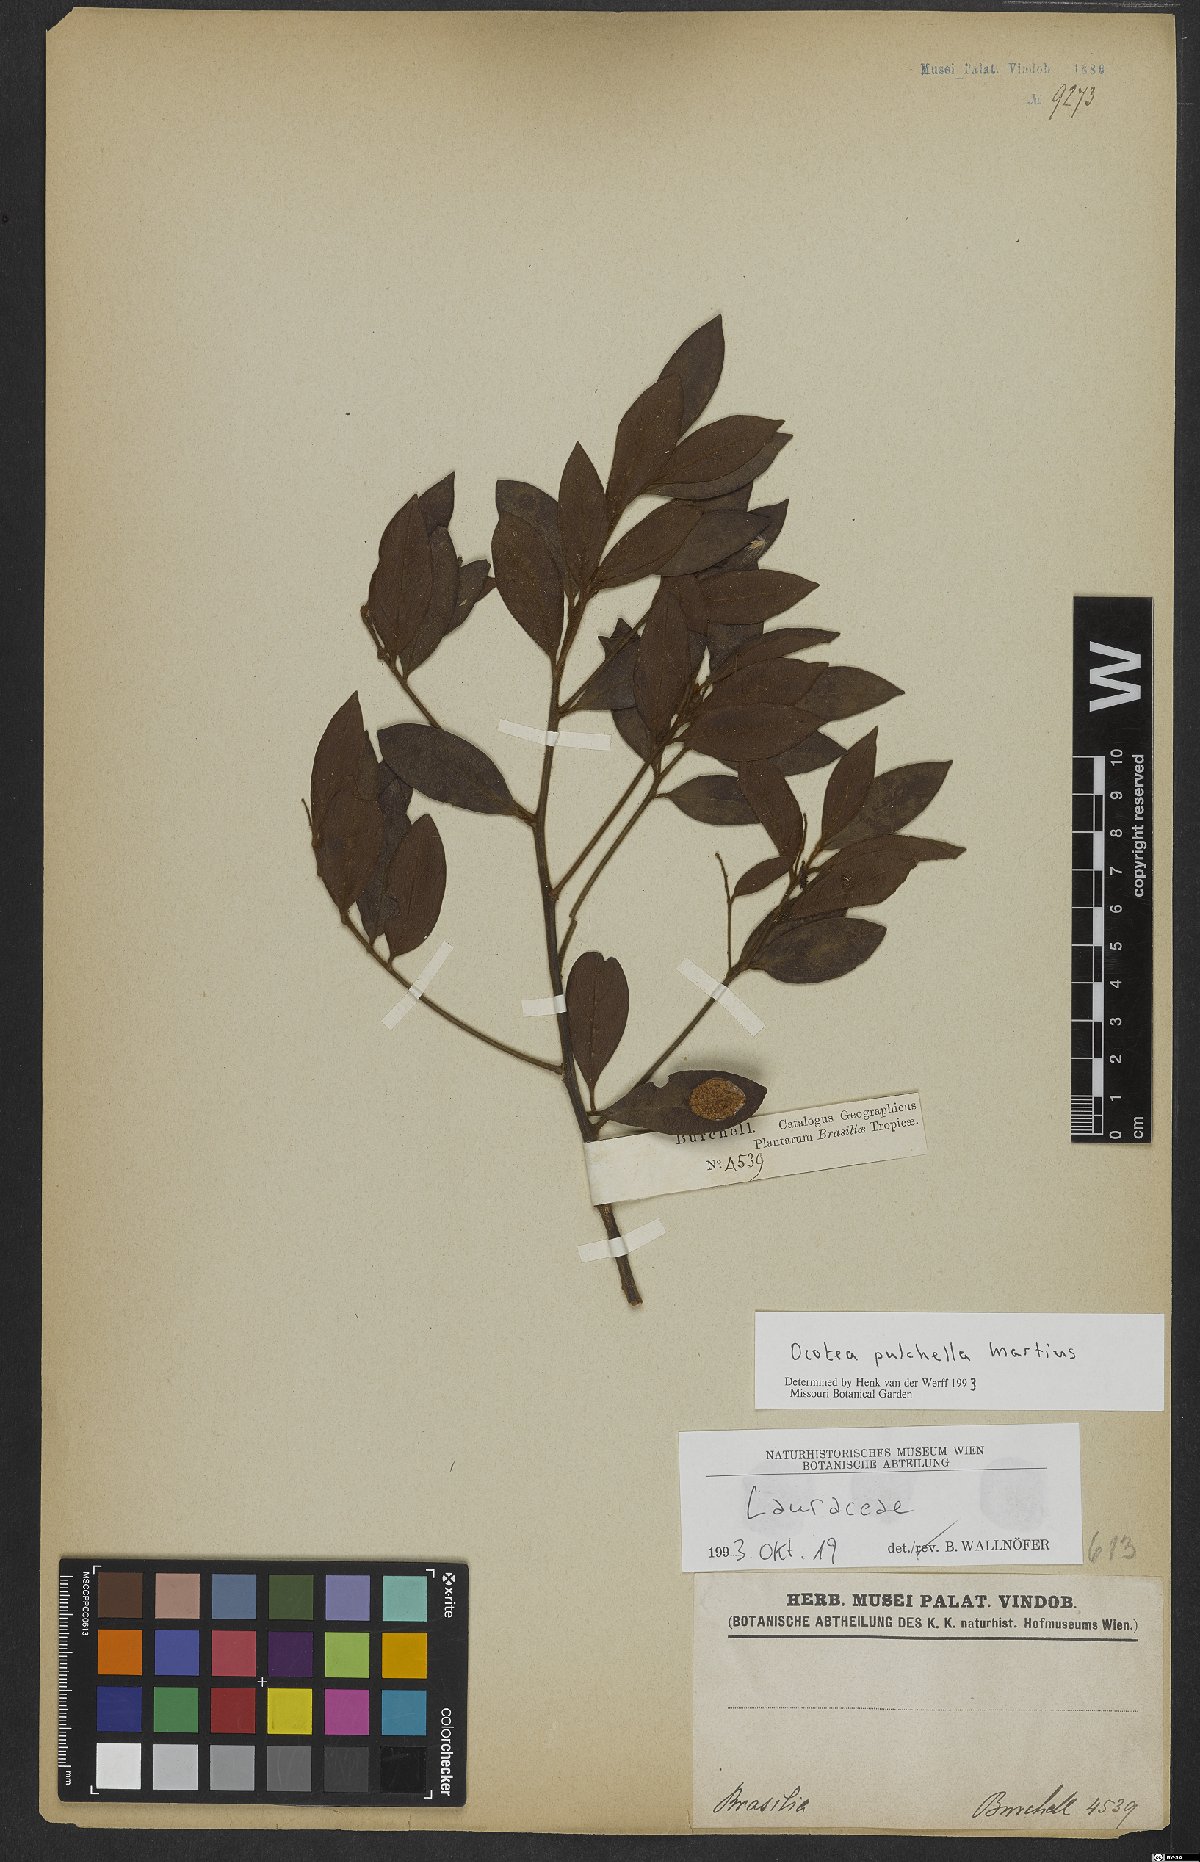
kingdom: Plantae
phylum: Tracheophyta
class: Magnoliopsida
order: Laurales
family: Lauraceae
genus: Mespilodaphne
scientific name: Mespilodaphne pulchella
